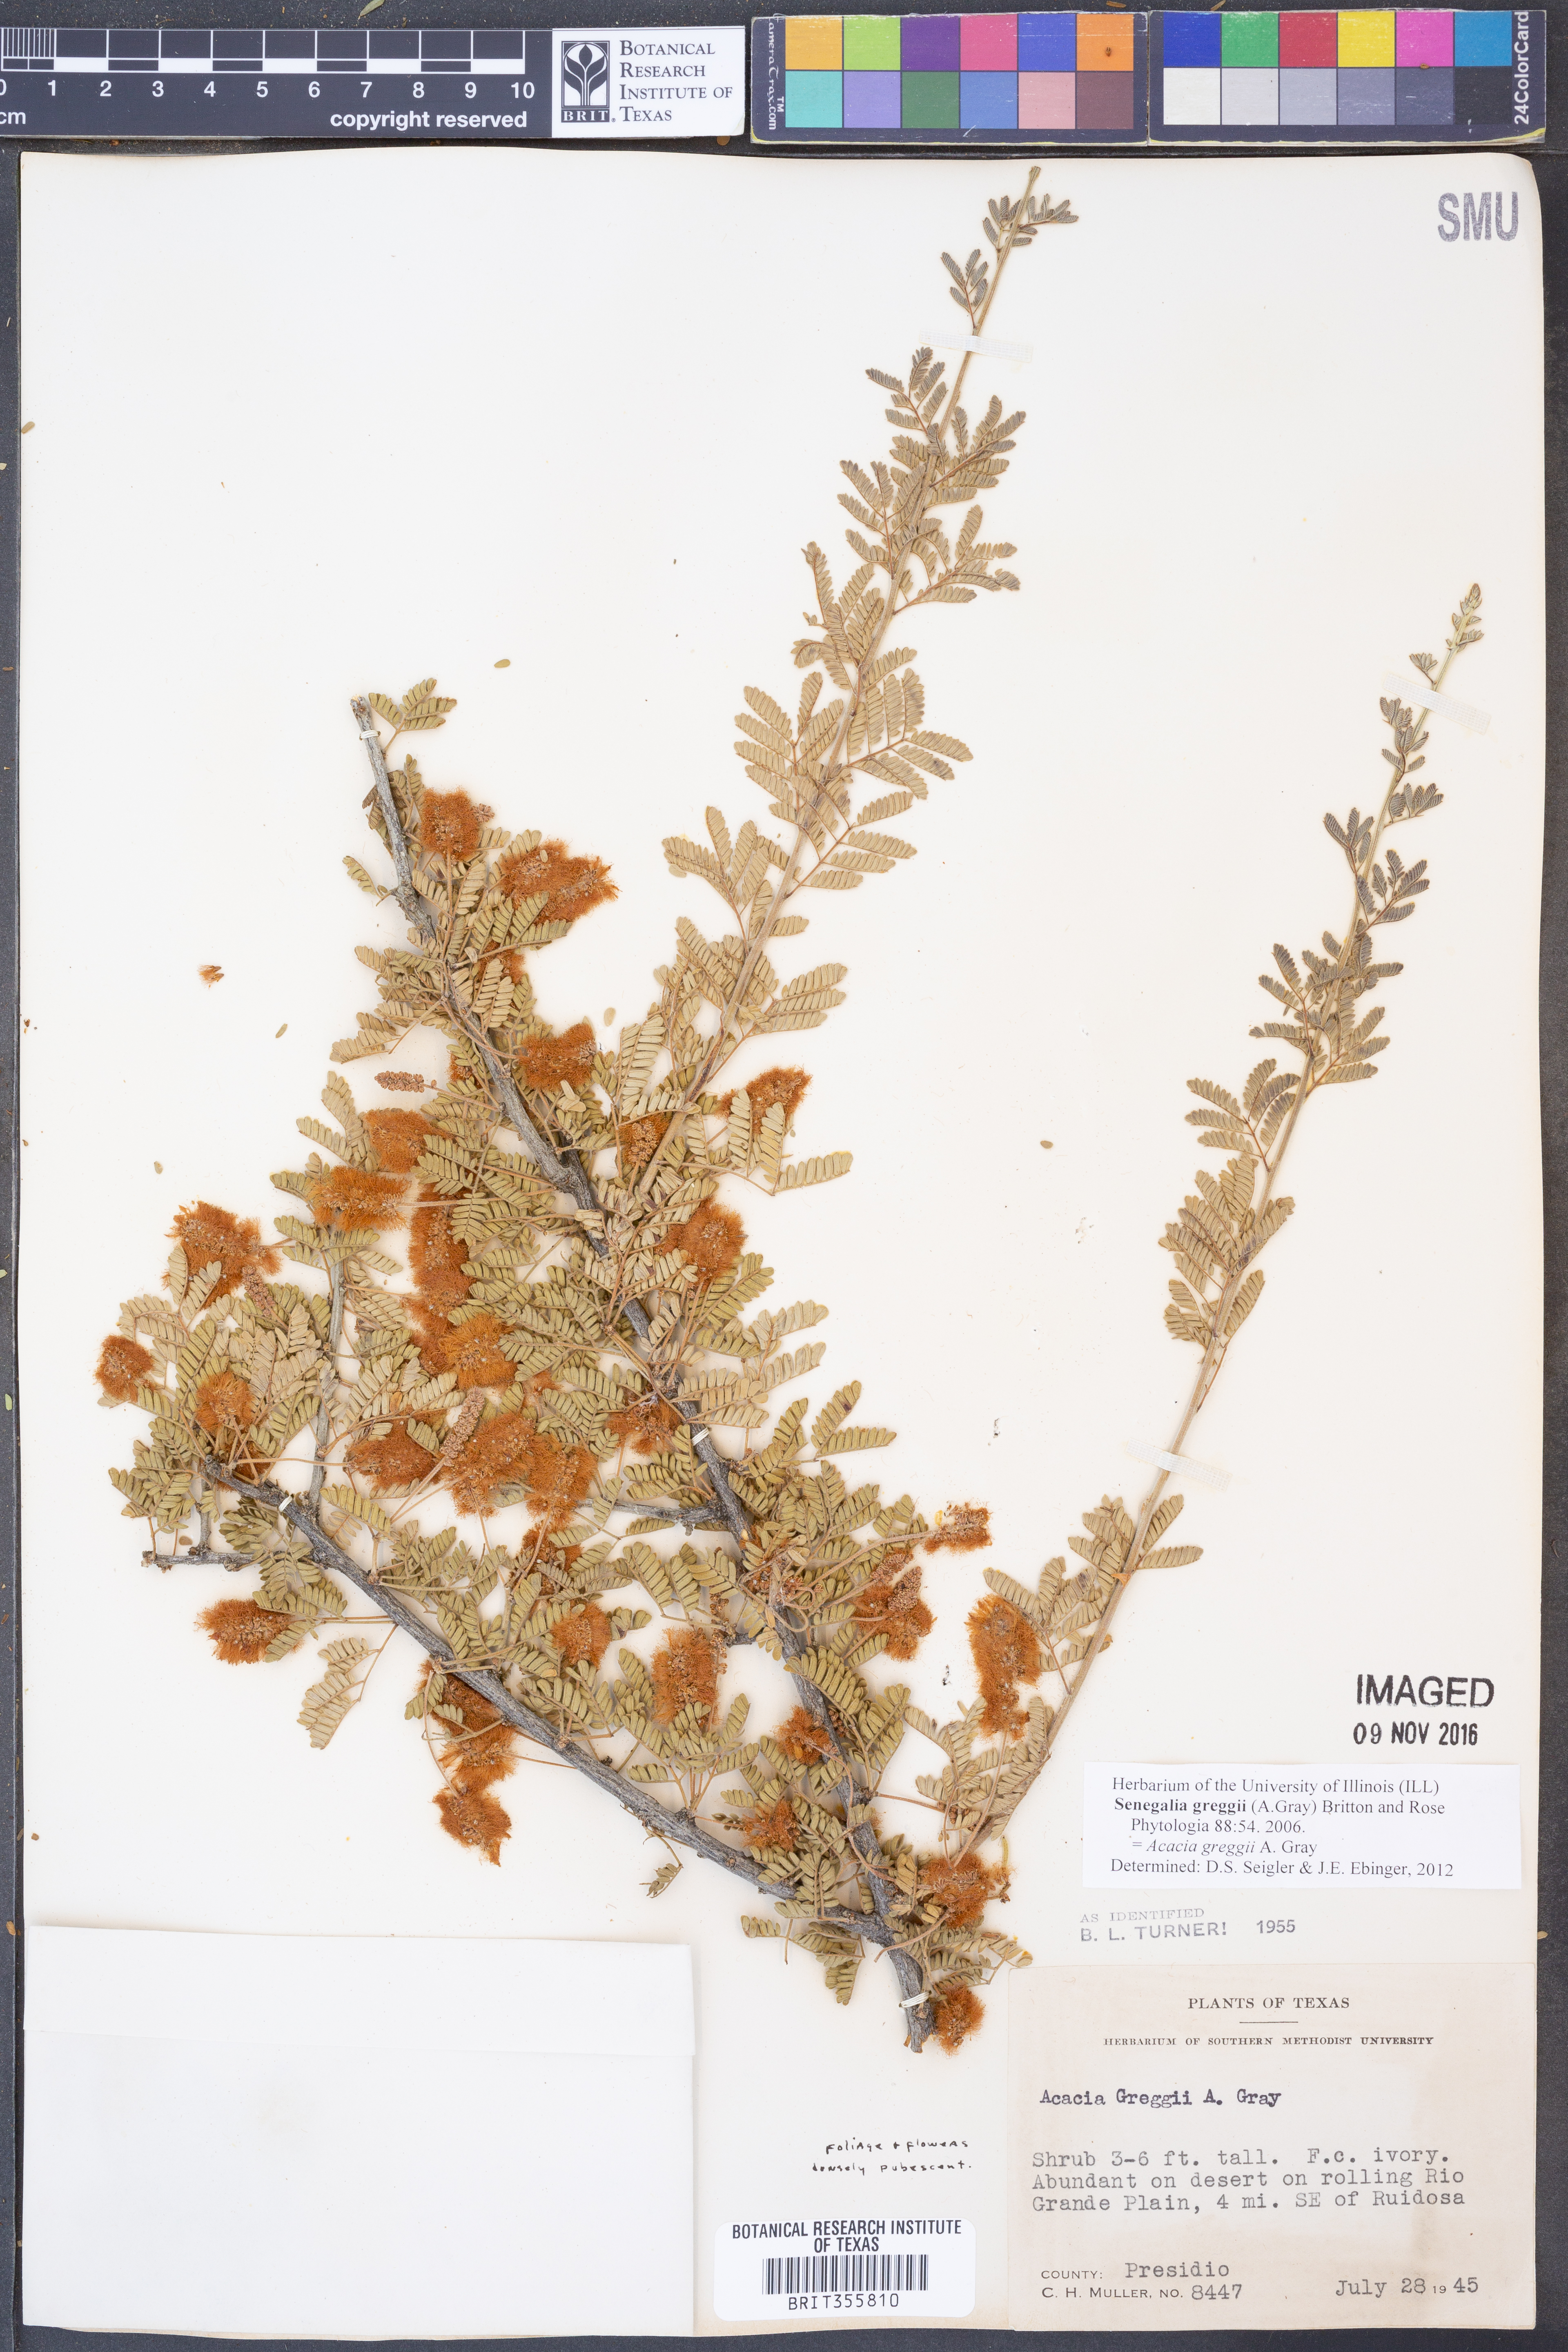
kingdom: Plantae
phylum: Tracheophyta
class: Magnoliopsida
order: Fabales
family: Fabaceae
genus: Senegalia
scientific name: Senegalia greggii
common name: Texas-mimosa
